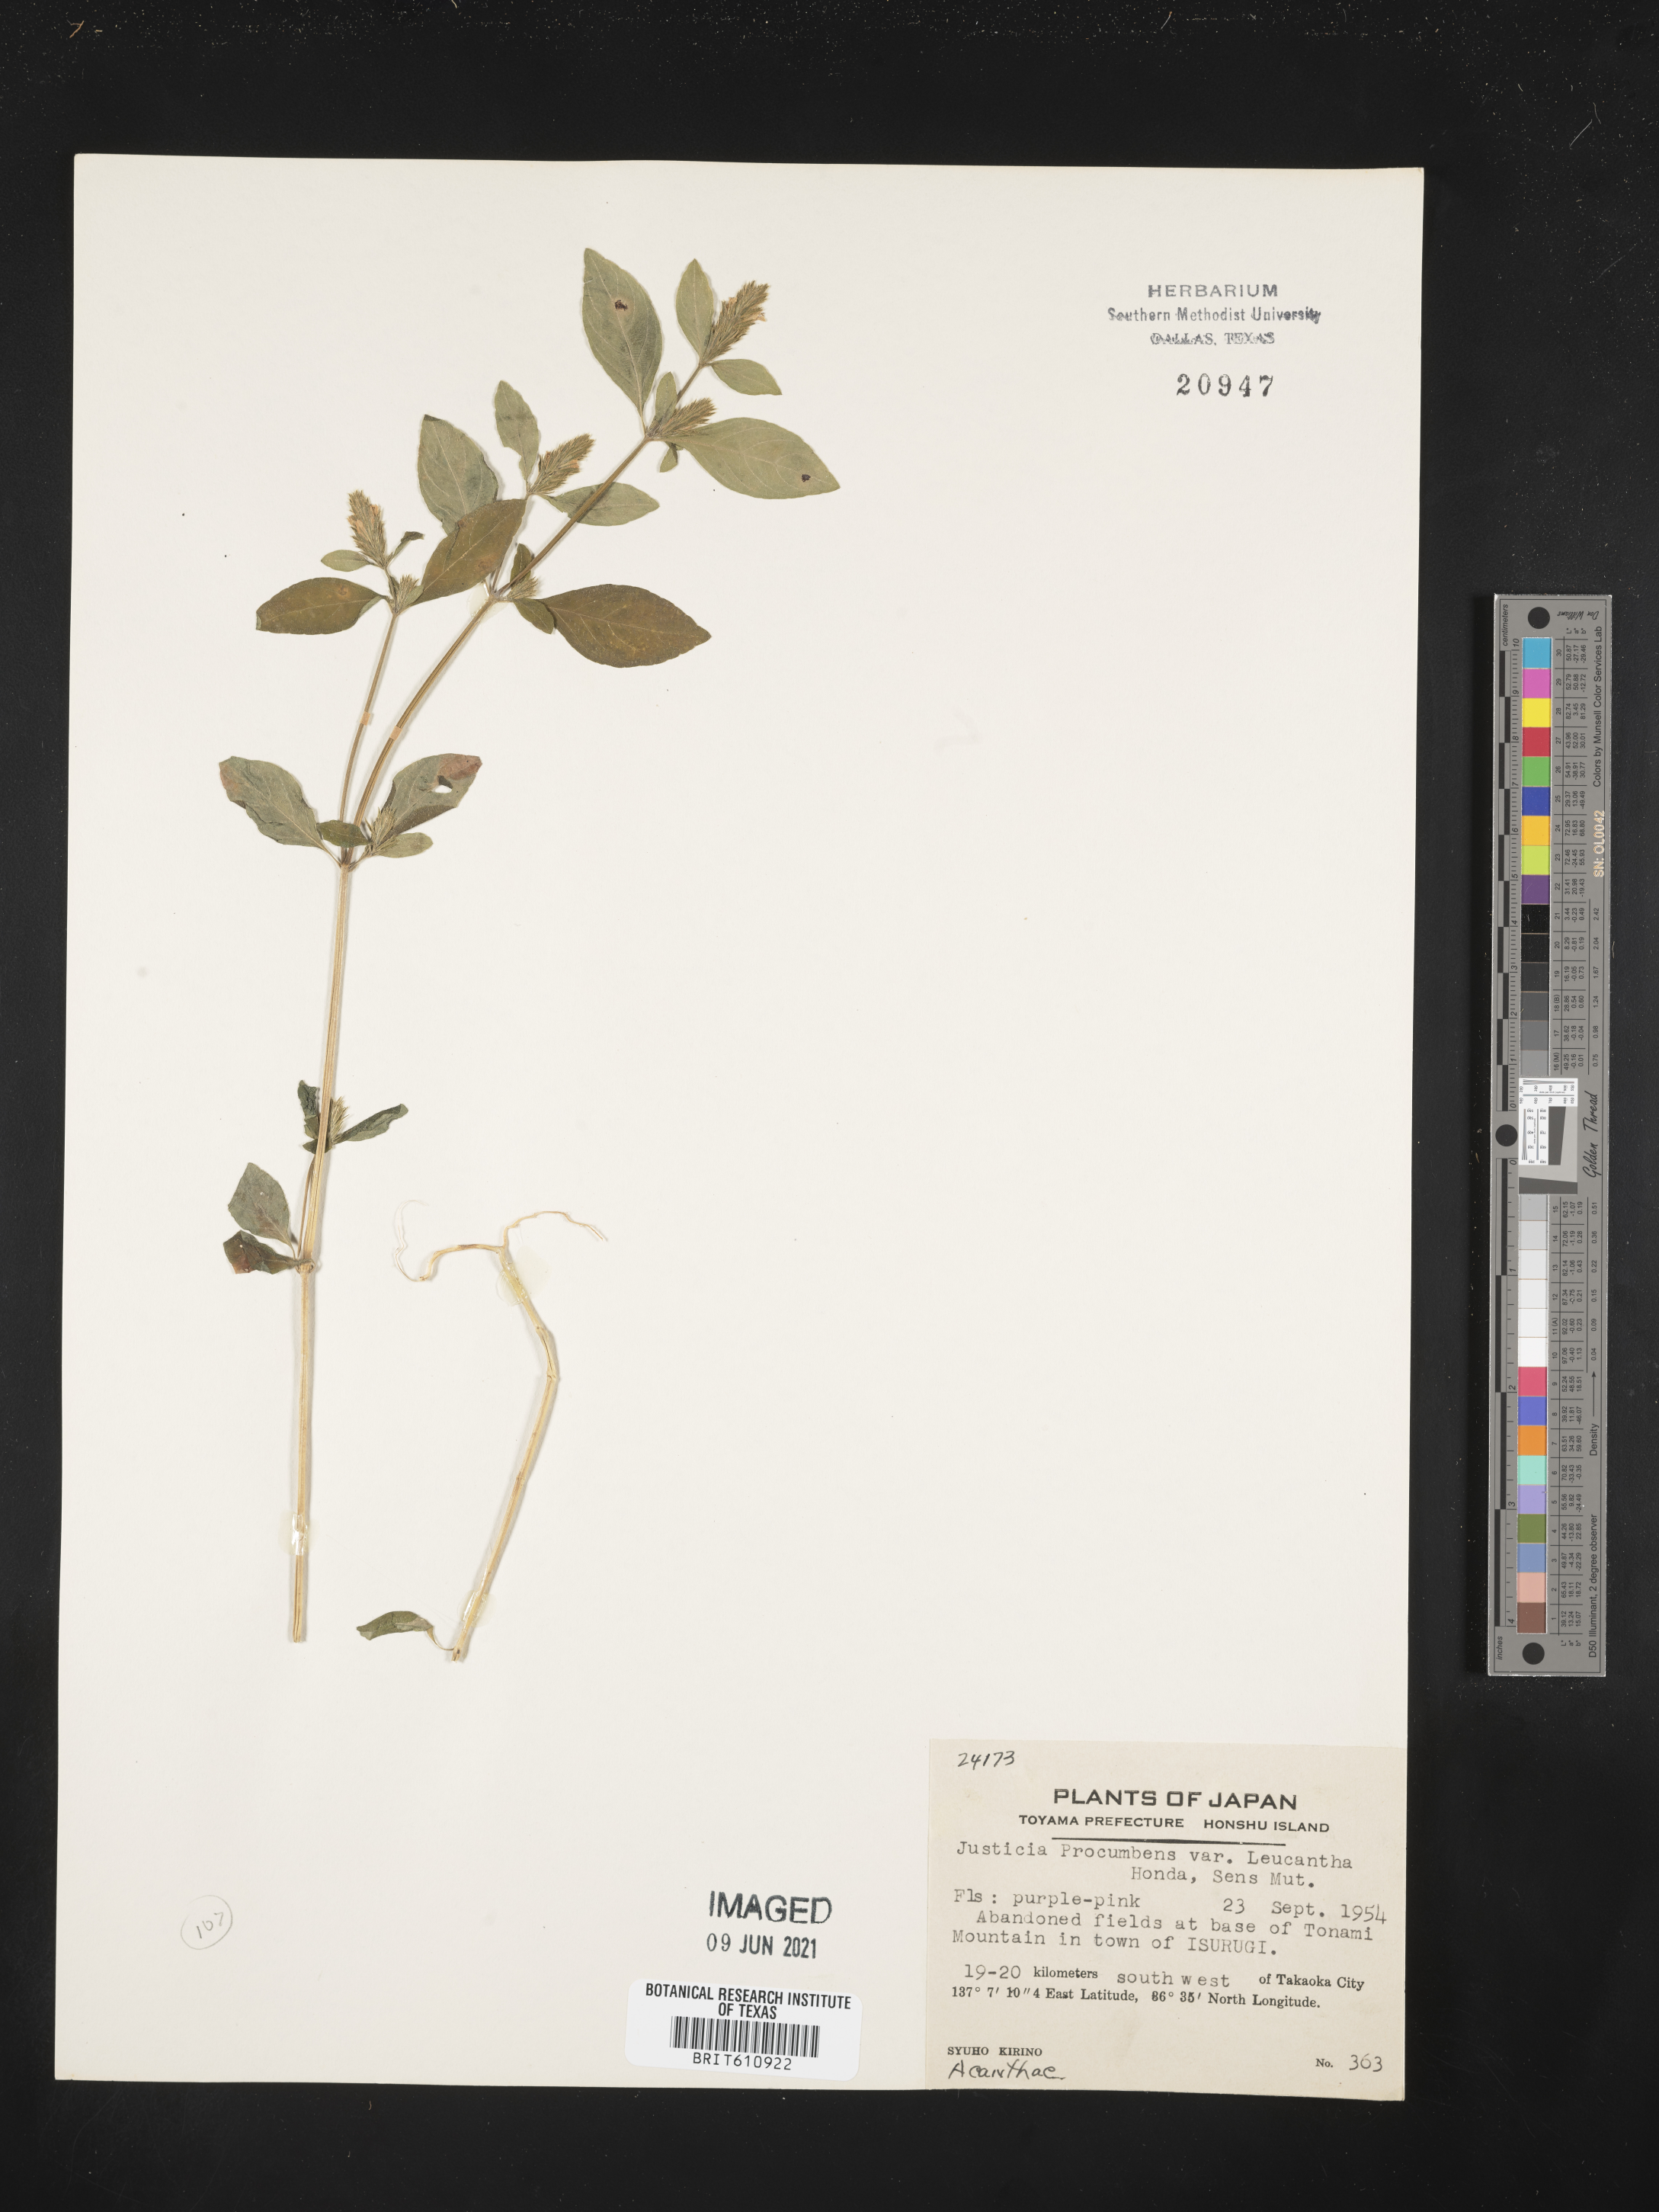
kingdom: Plantae
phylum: Tracheophyta
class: Magnoliopsida
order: Lamiales
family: Acanthaceae
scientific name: Acanthaceae
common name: Acanthaceae
